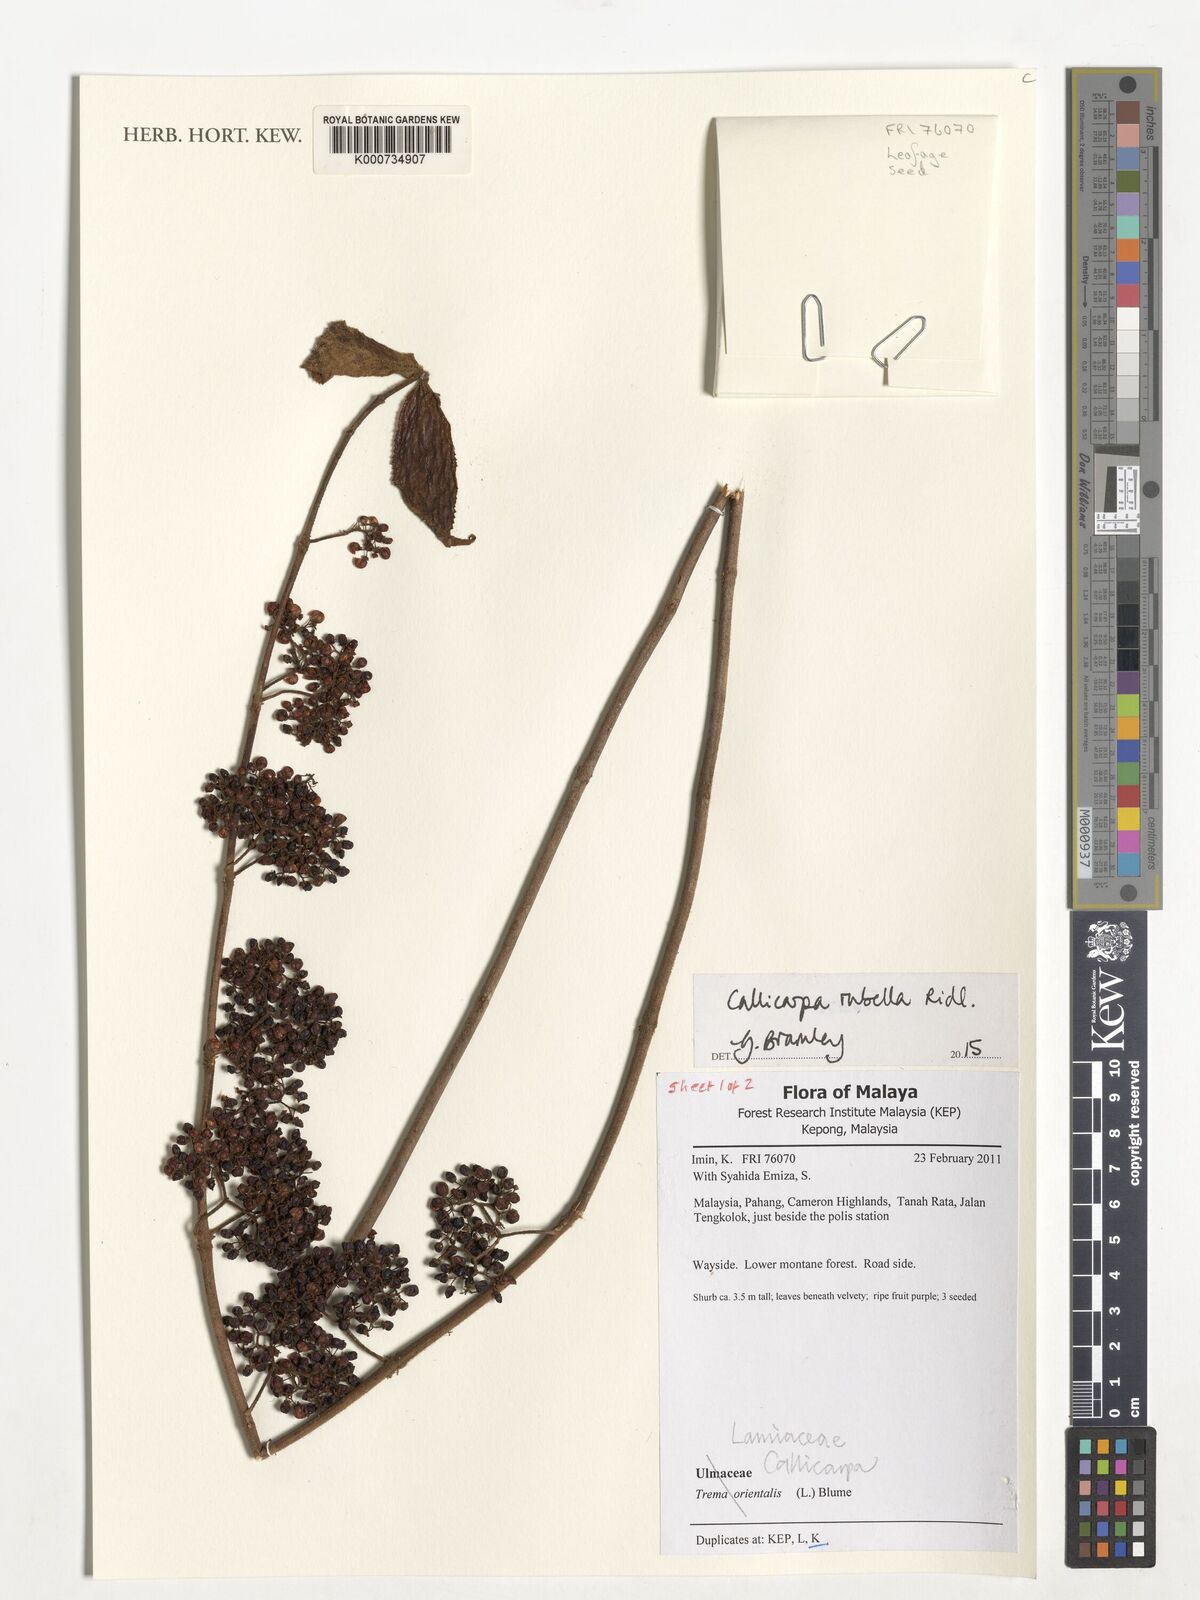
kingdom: Plantae
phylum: Tracheophyta
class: Magnoliopsida
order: Lamiales
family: Lamiaceae
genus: Callicarpa
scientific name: Callicarpa rubella
